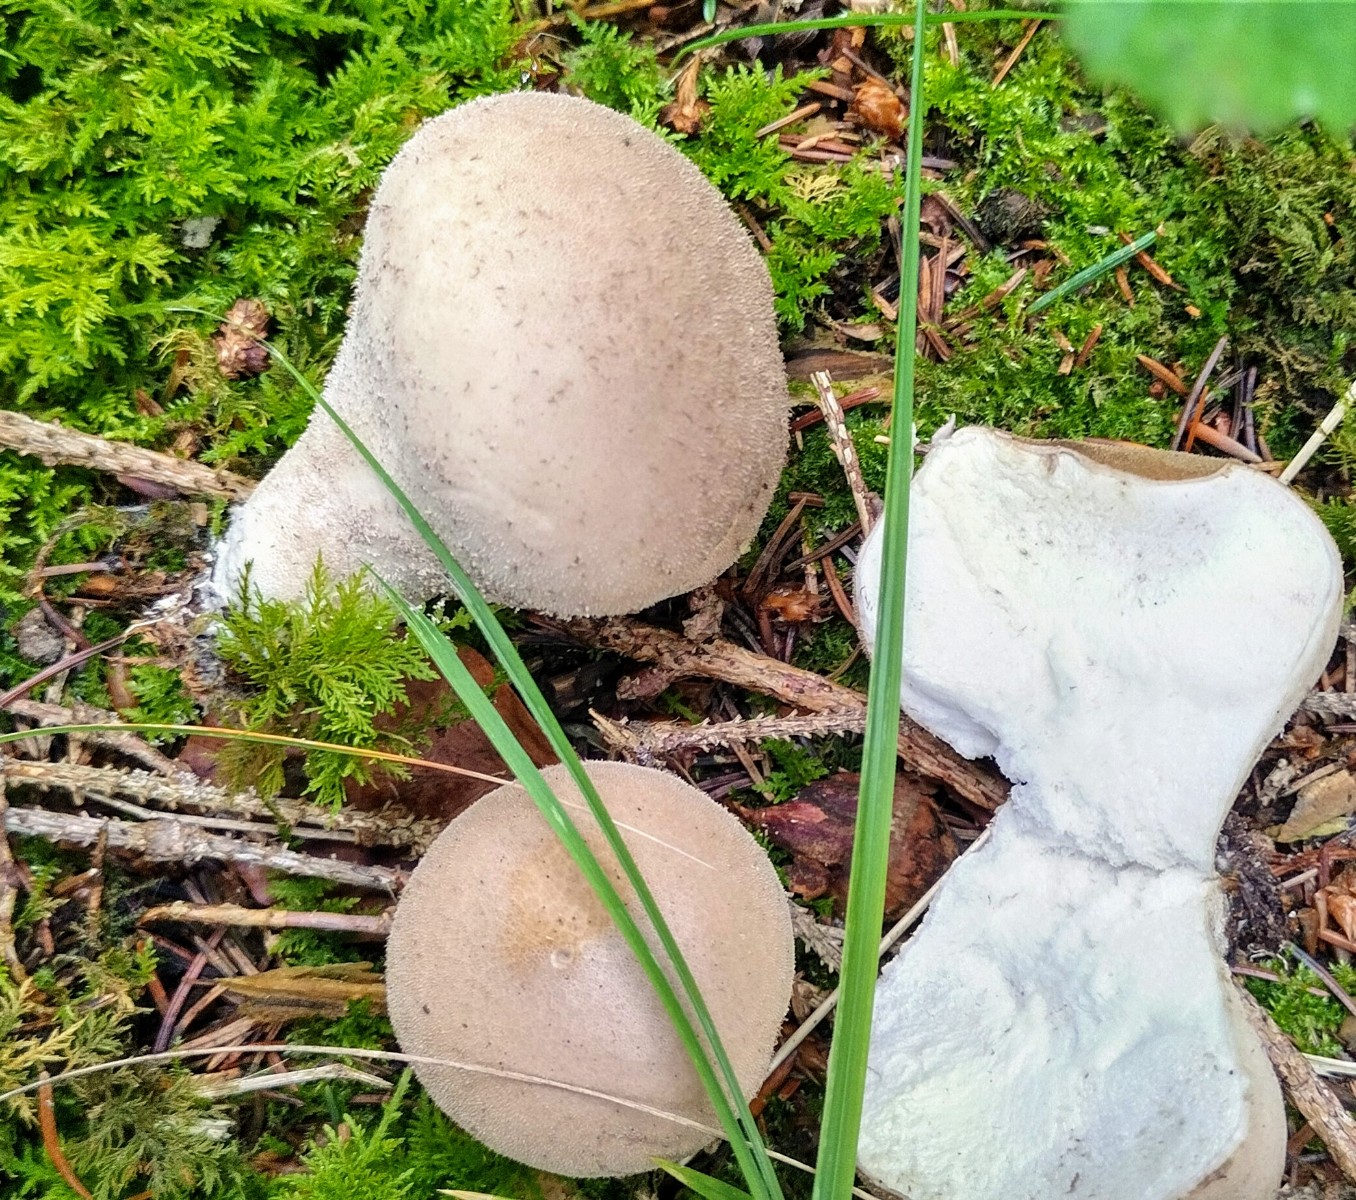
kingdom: Fungi
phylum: Basidiomycota
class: Agaricomycetes
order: Agaricales
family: Lycoperdaceae
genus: Lycoperdon
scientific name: Lycoperdon molle
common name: skov-støvbold
